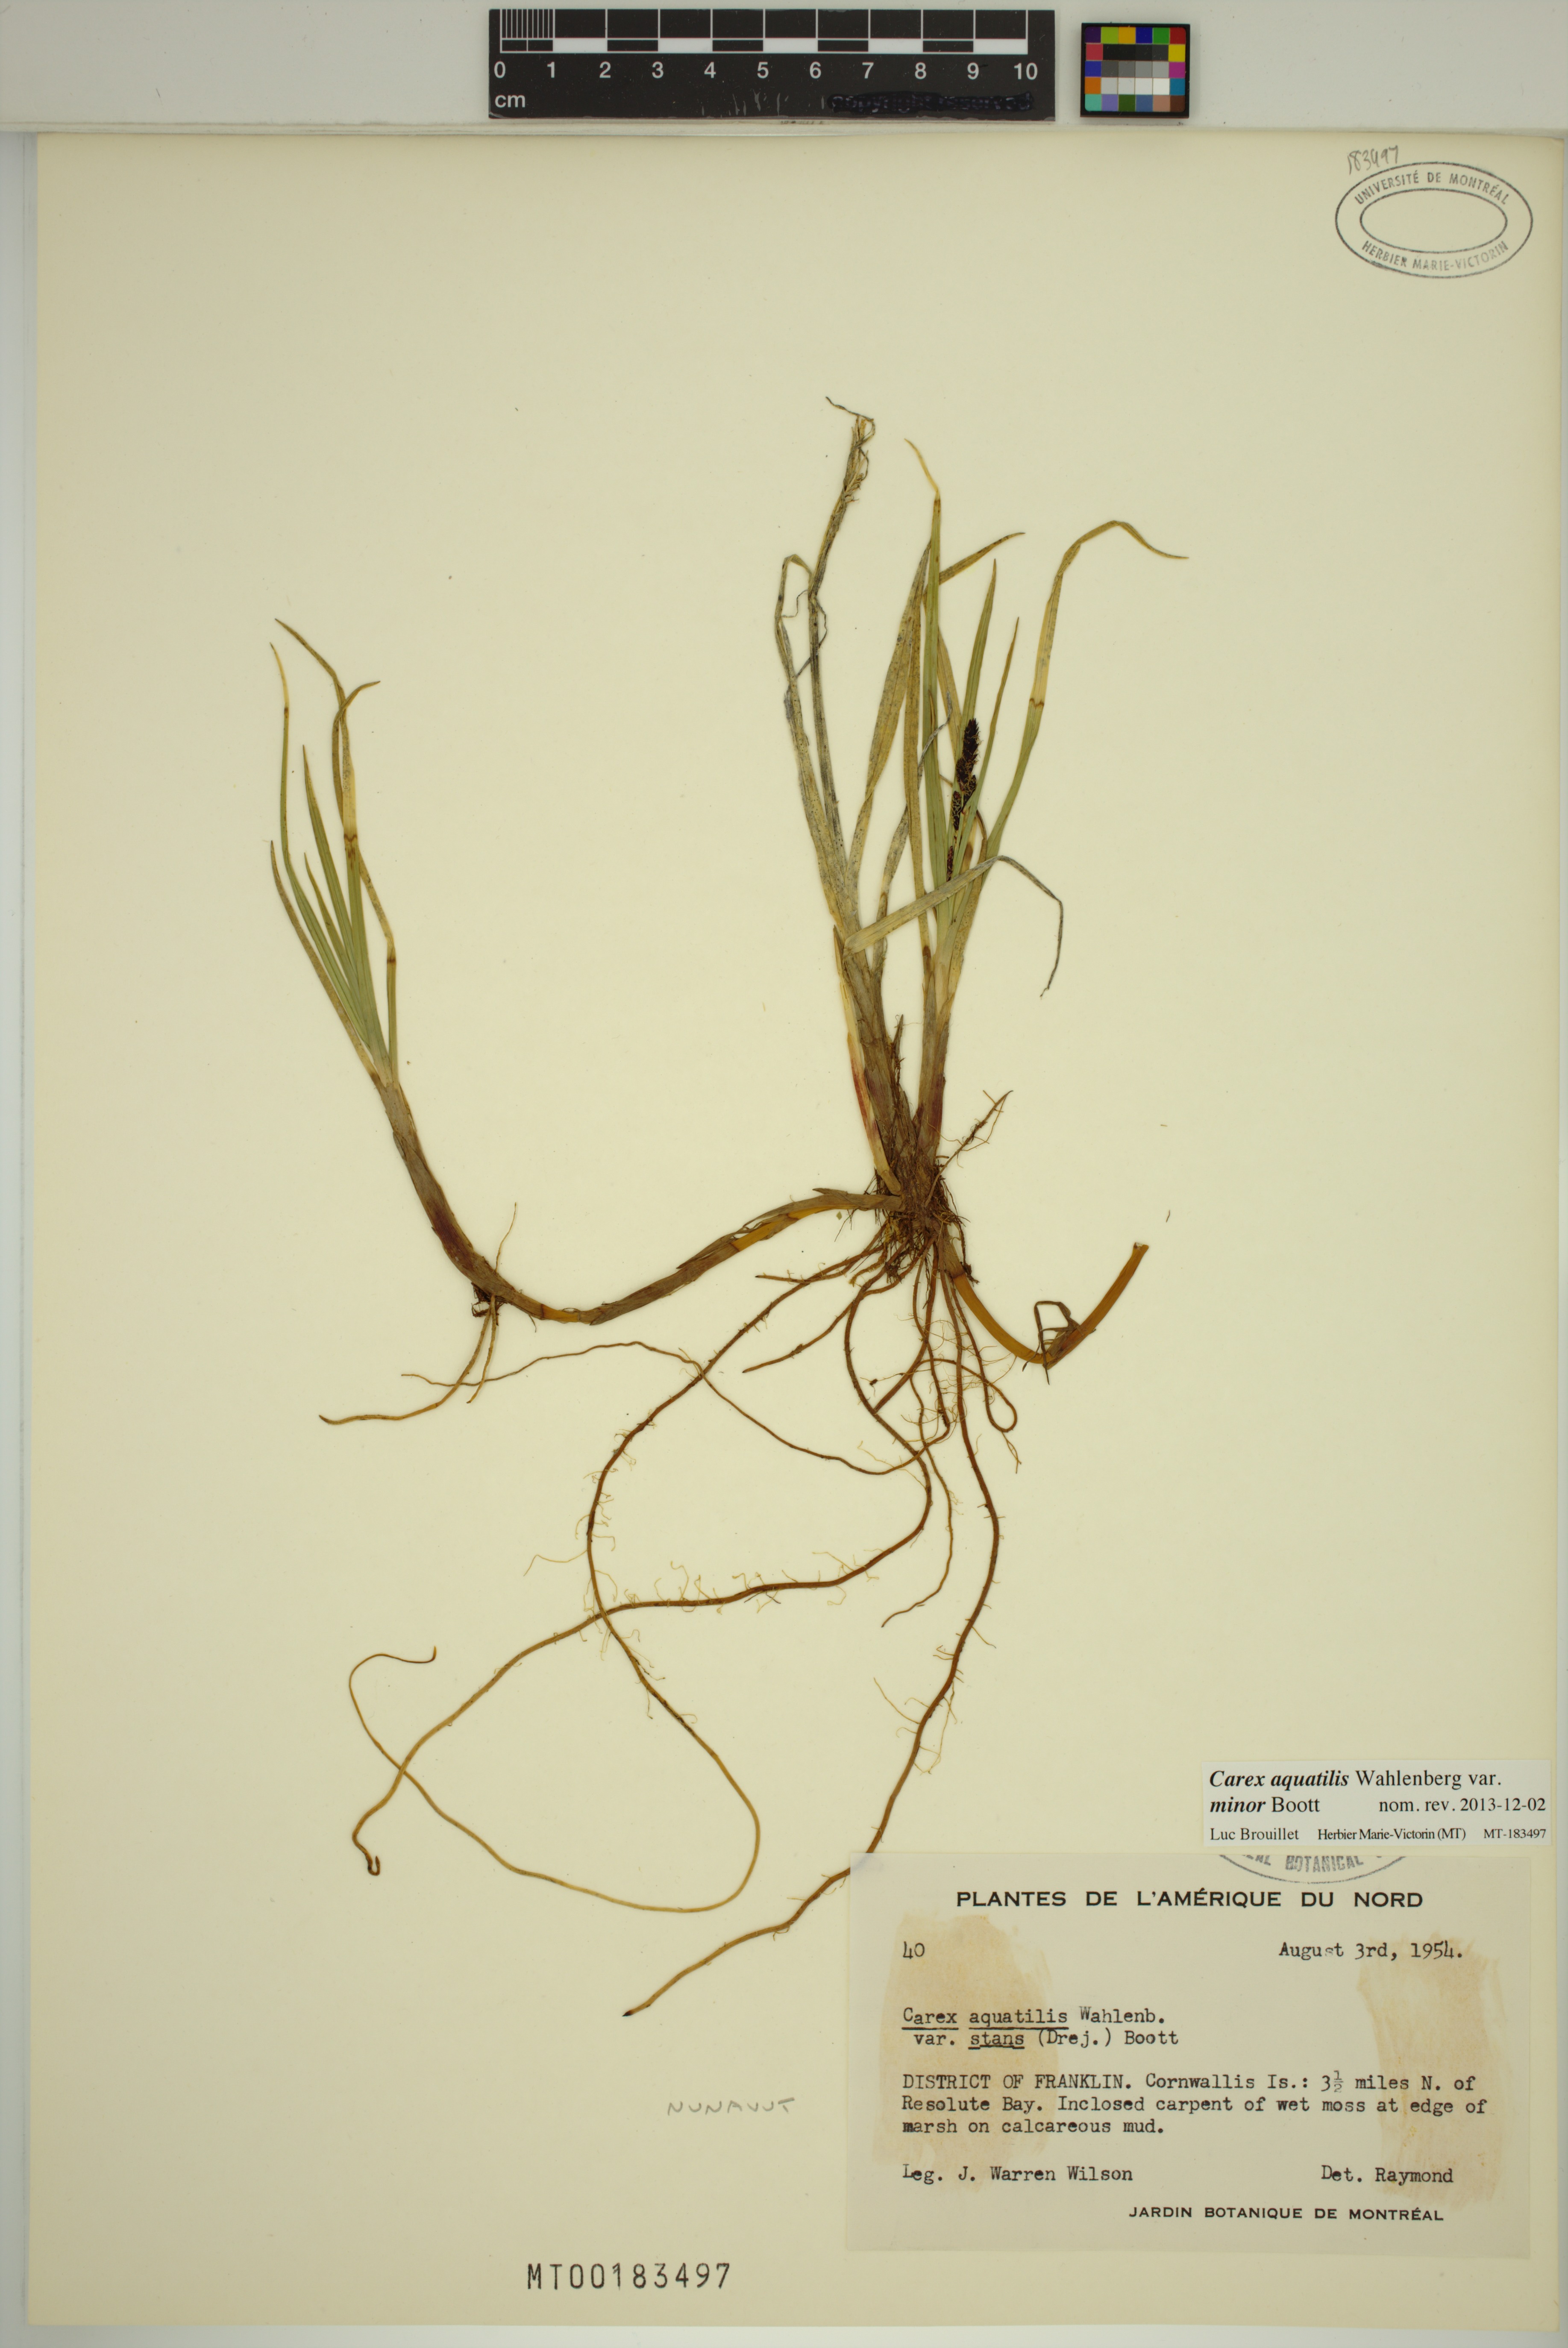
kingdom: Plantae
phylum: Tracheophyta
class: Liliopsida
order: Poales
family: Cyperaceae
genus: Carex
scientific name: Carex aquatilis
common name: Water sedge
